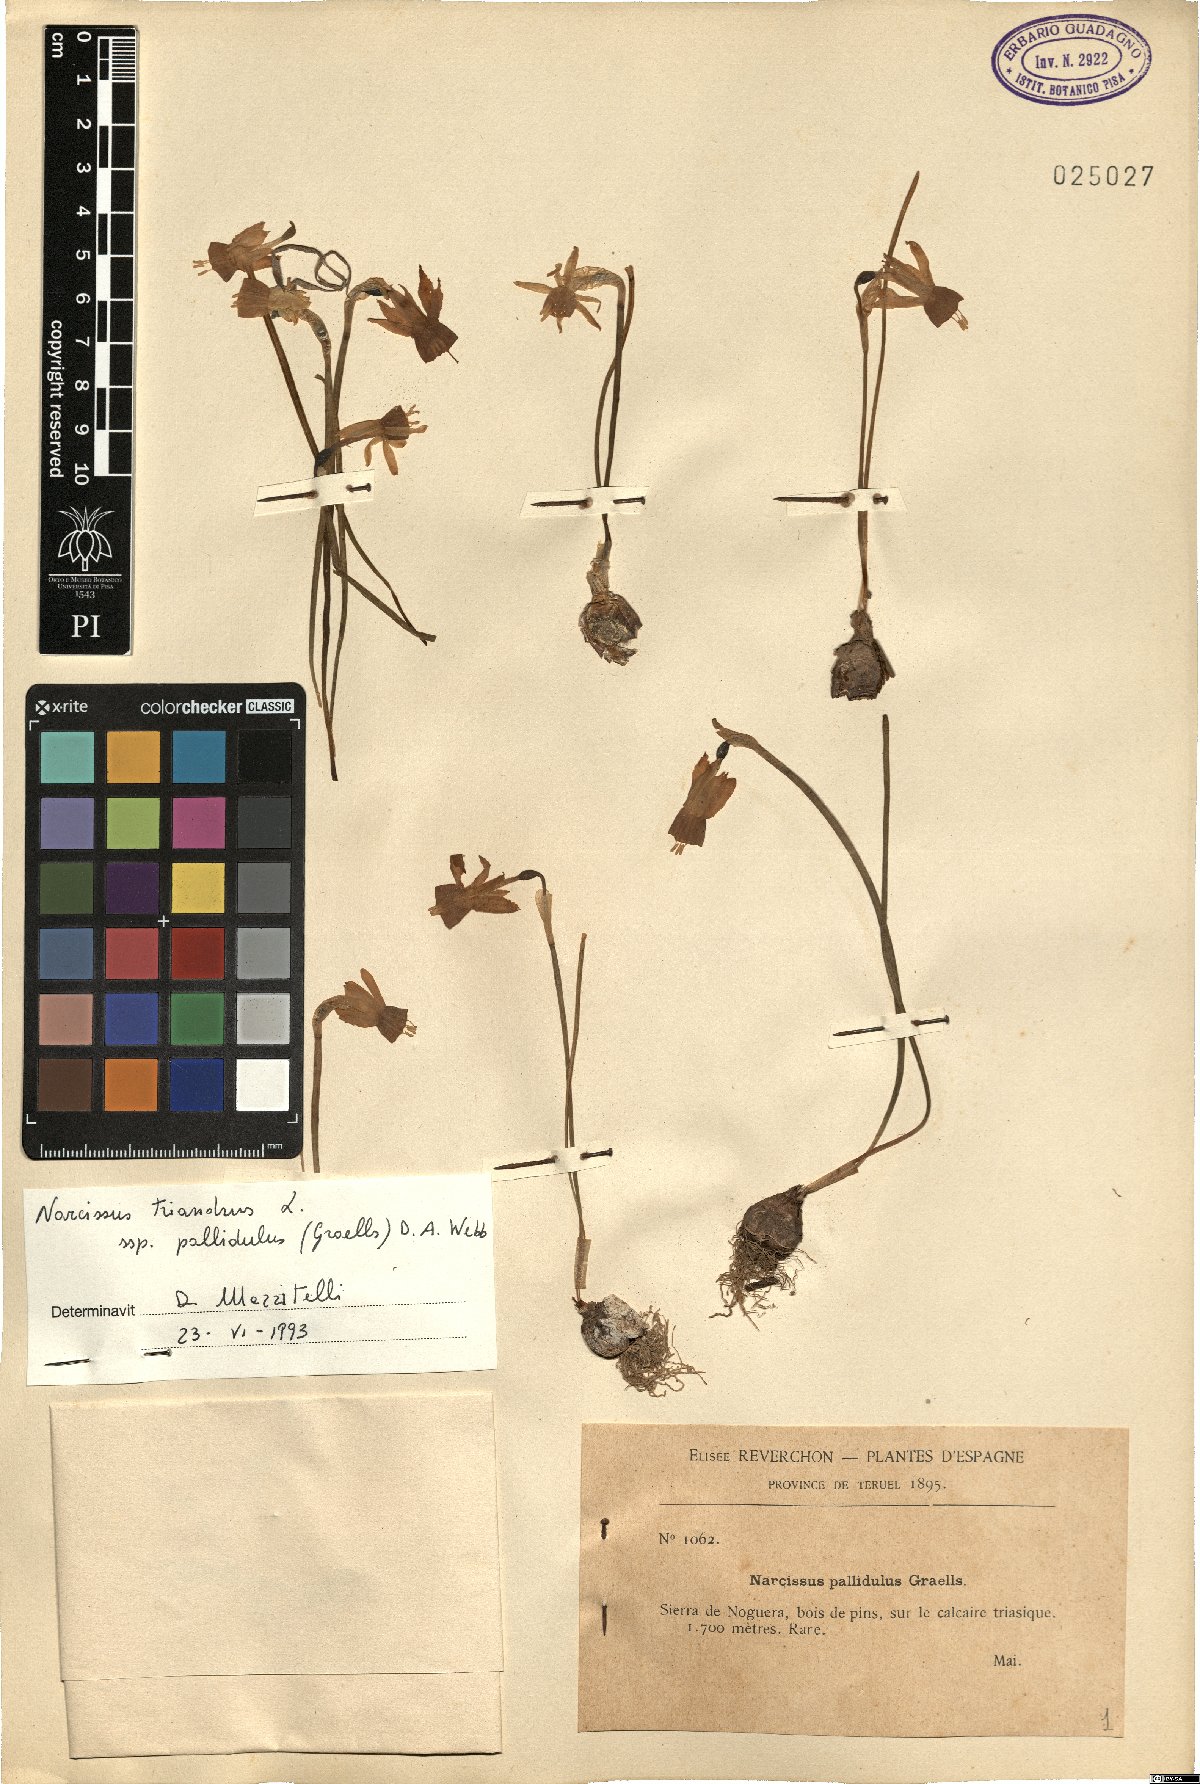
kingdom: Plantae
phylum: Tracheophyta
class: Liliopsida
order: Asparagales
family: Amaryllidaceae
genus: Narcissus
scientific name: Narcissus triandrus
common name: Angel's-tears
